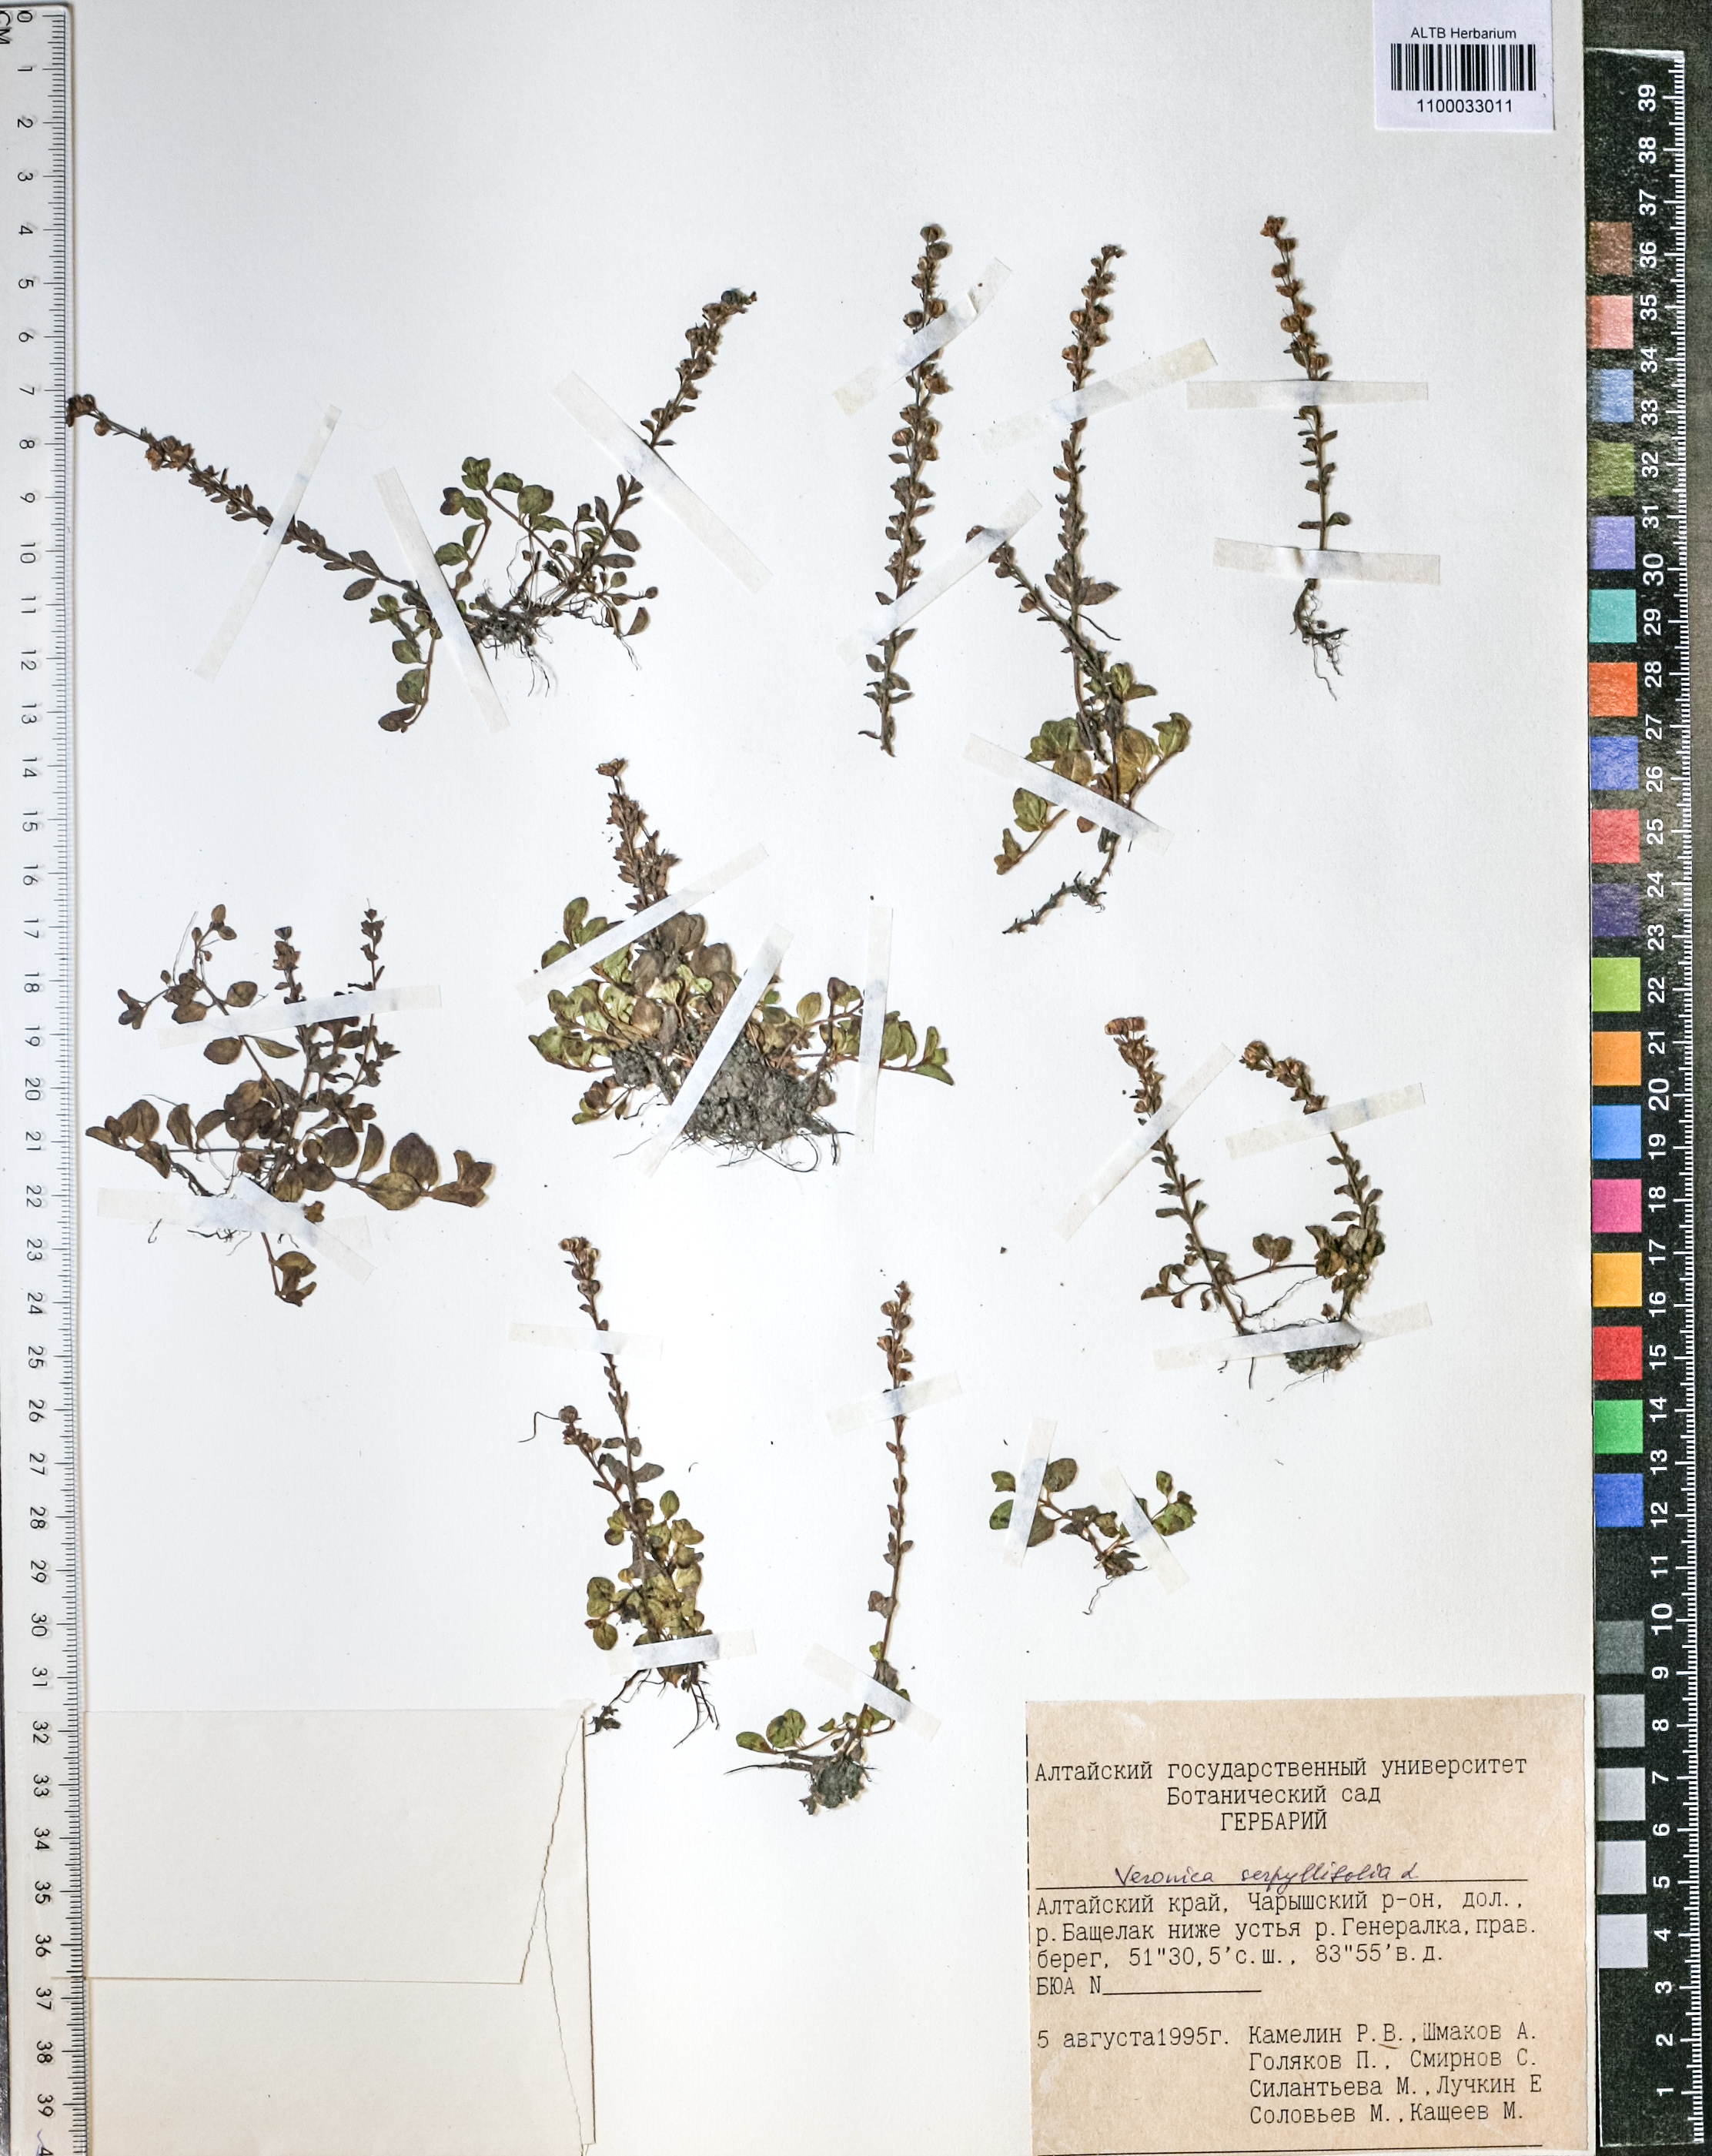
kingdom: Plantae
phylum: Tracheophyta
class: Magnoliopsida
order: Lamiales
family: Plantaginaceae
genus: Veronica
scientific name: Veronica serpyllifolia
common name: Thyme-leaved speedwell
